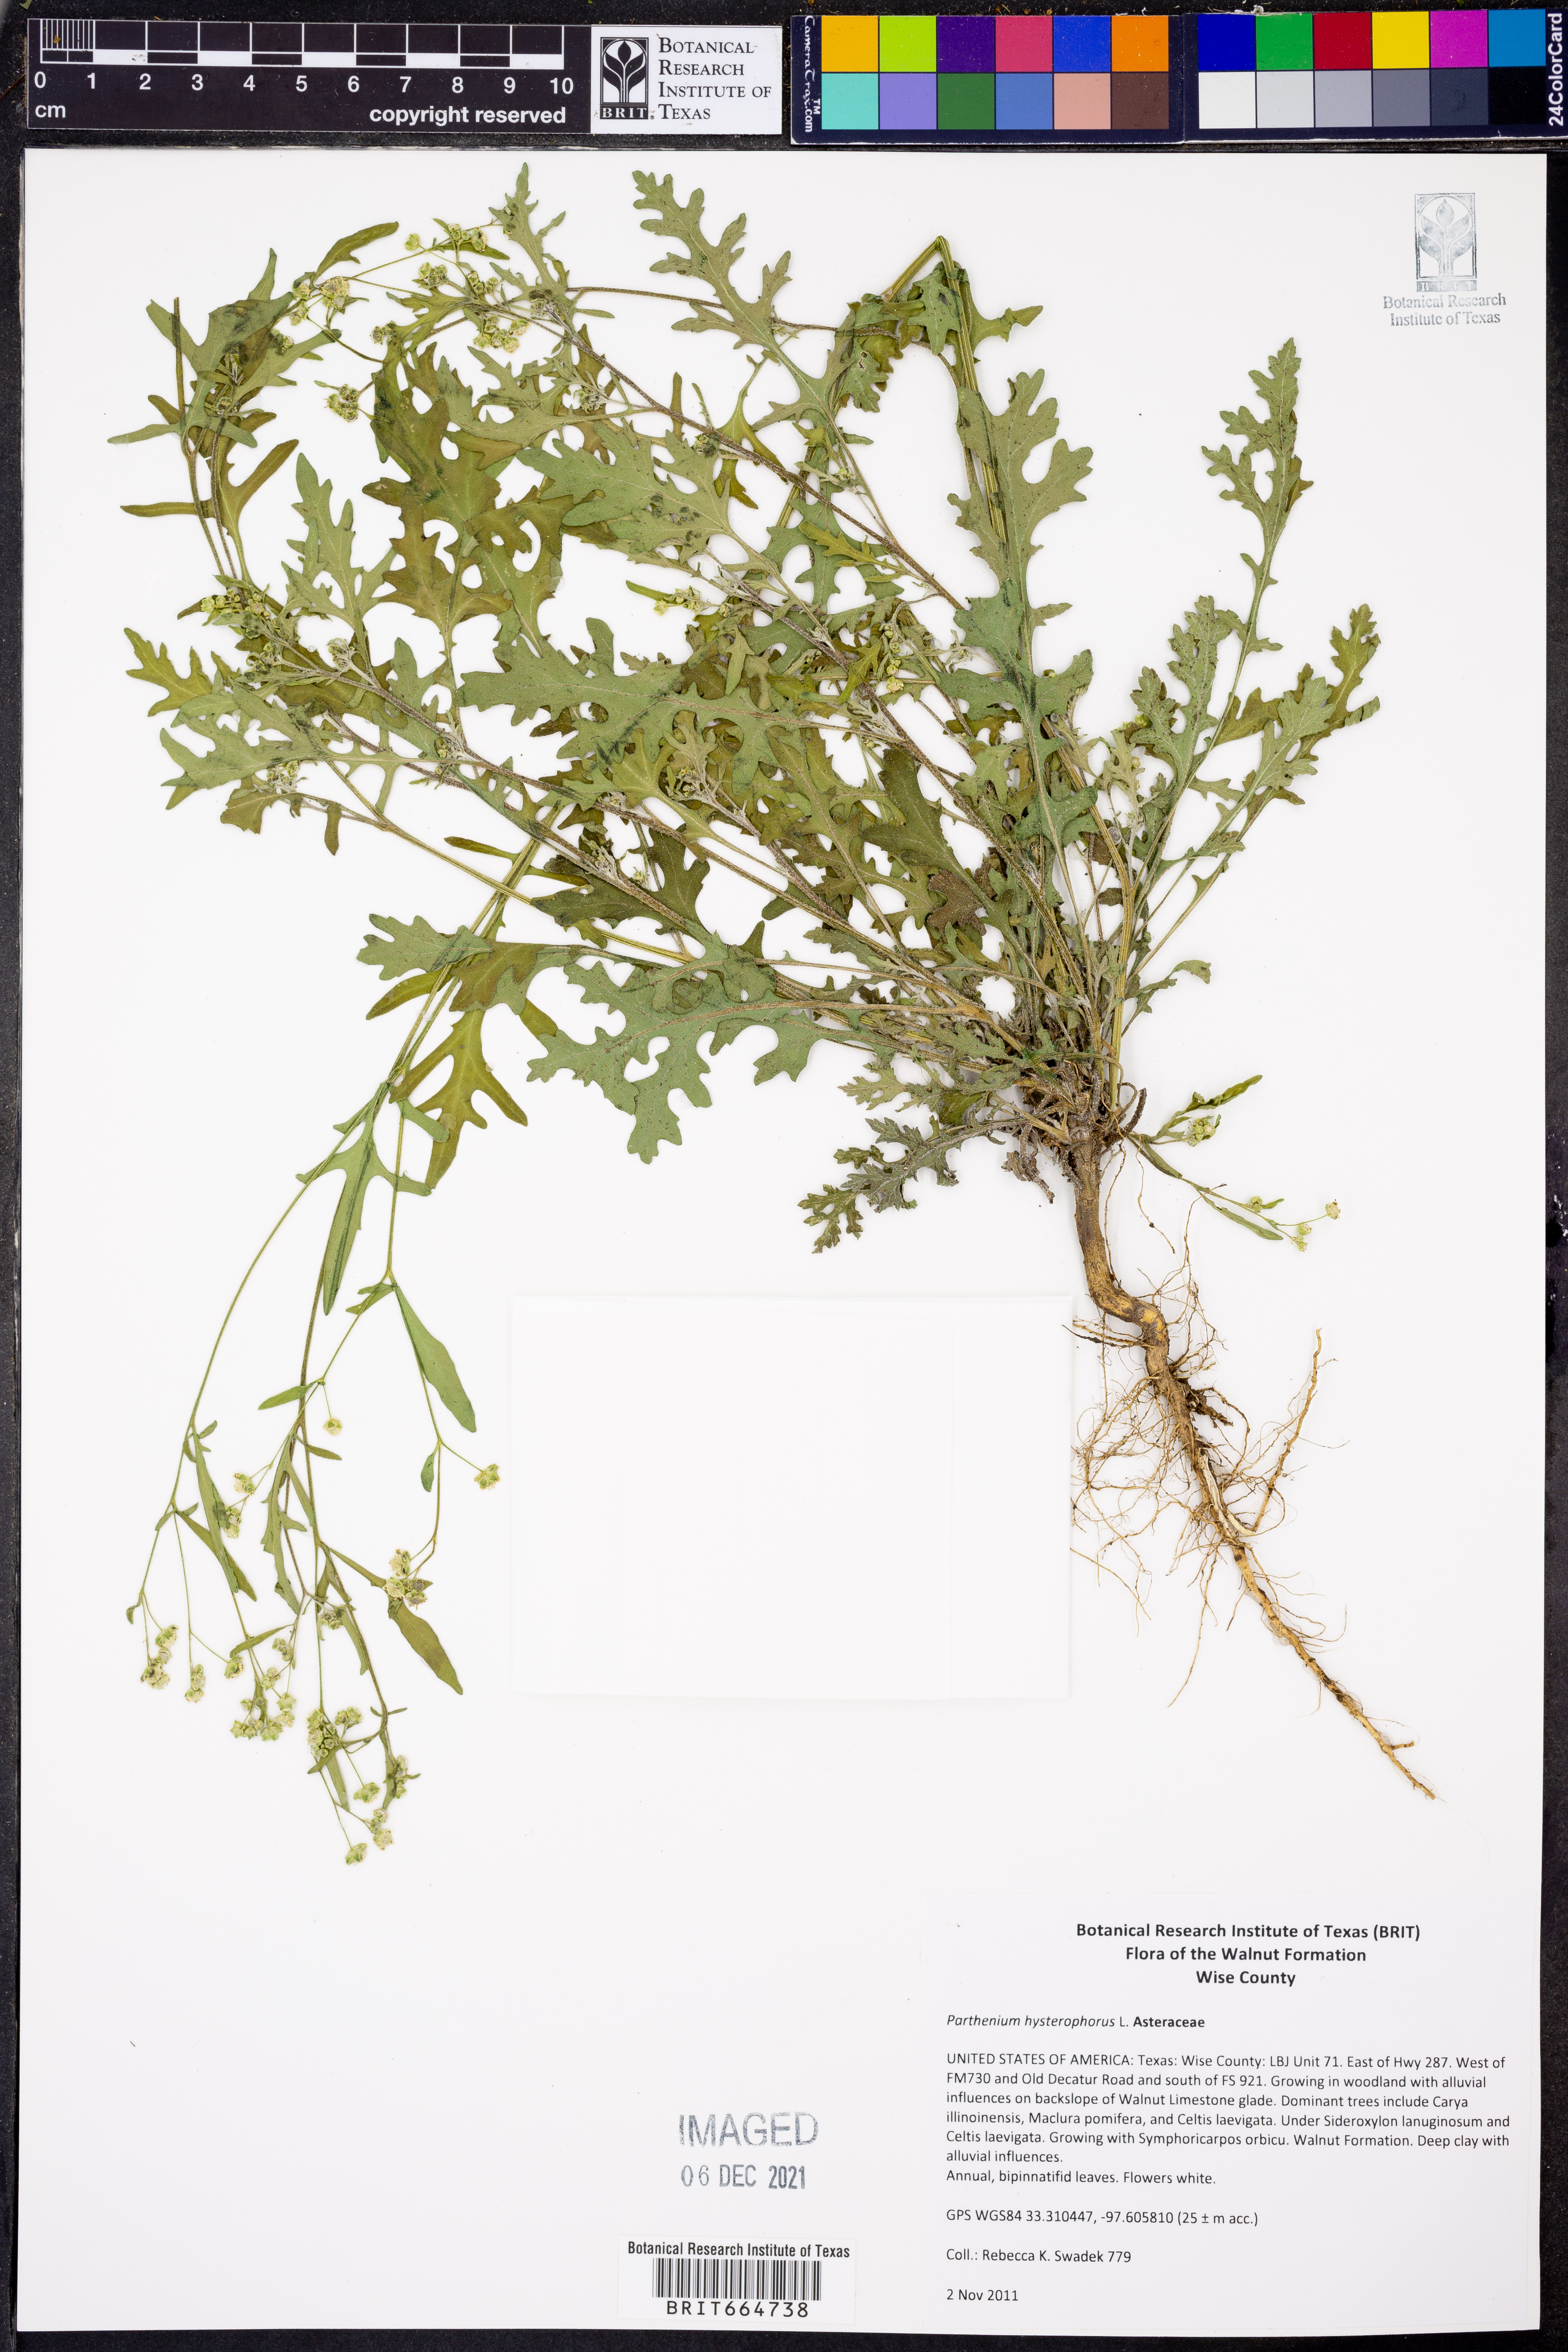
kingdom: Plantae
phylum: Tracheophyta
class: Magnoliopsida
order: Asterales
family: Asteraceae
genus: Parthenium
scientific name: Parthenium hysterophorus
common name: Santa maria feverfew
